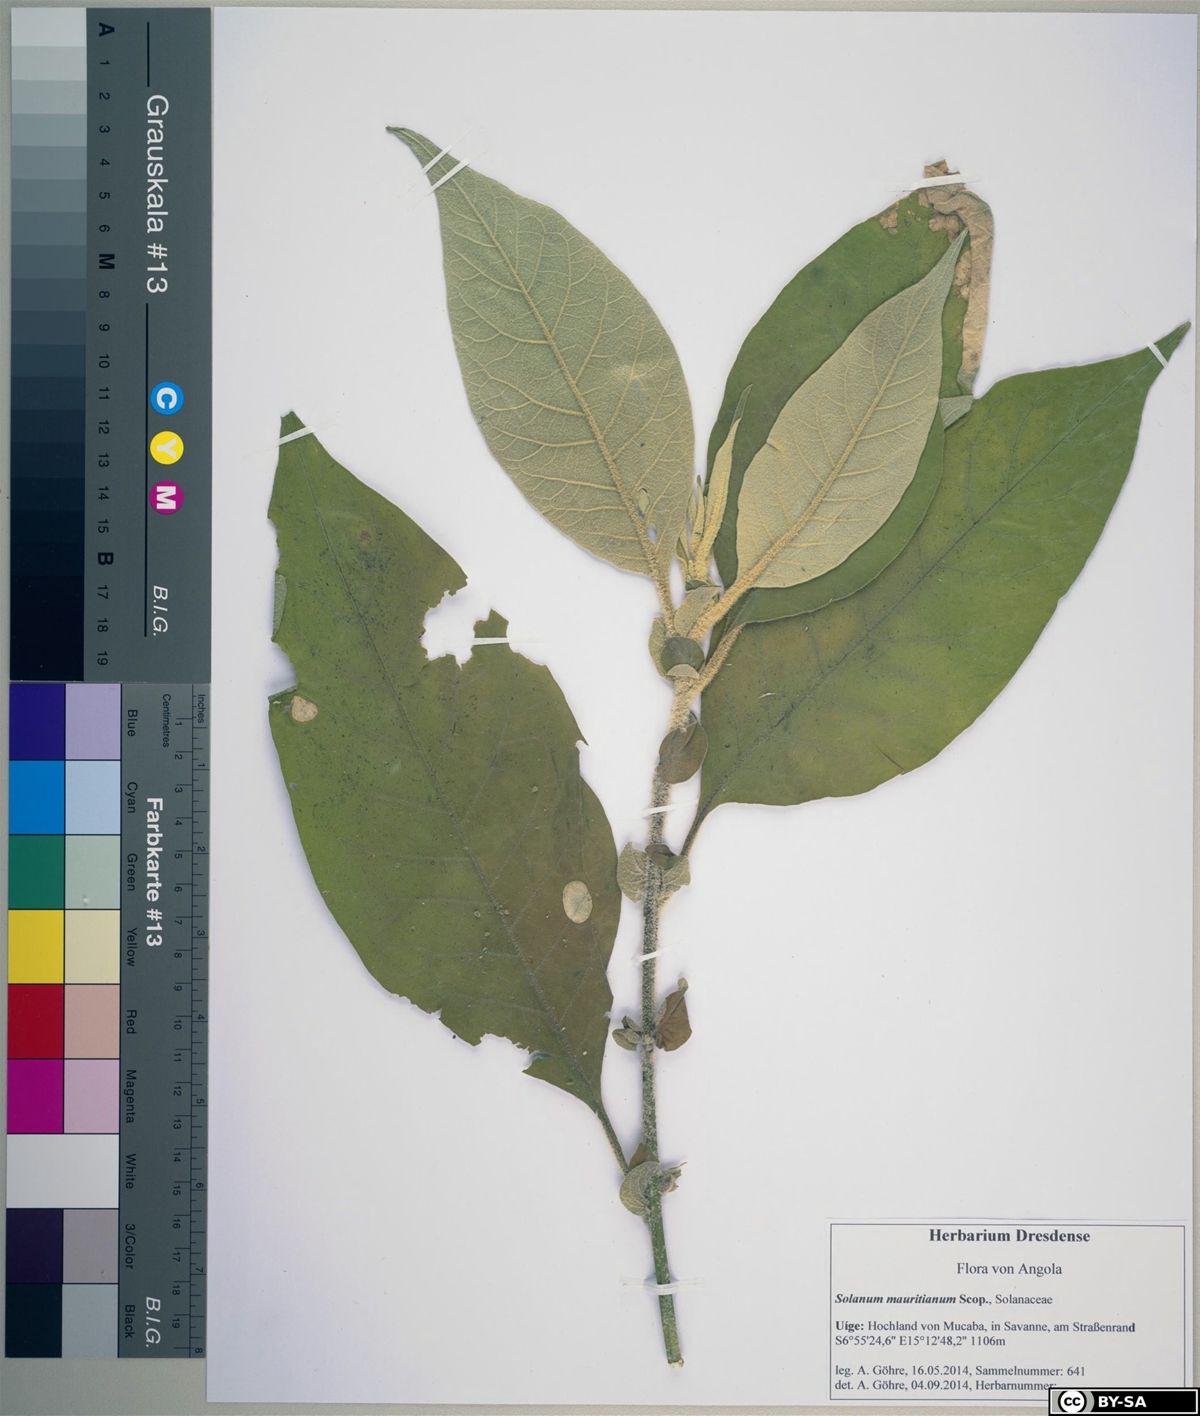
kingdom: Plantae
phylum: Tracheophyta
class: Magnoliopsida
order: Solanales
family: Solanaceae
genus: Solanum
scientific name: Solanum mauritianum
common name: Earleaf nightshade
